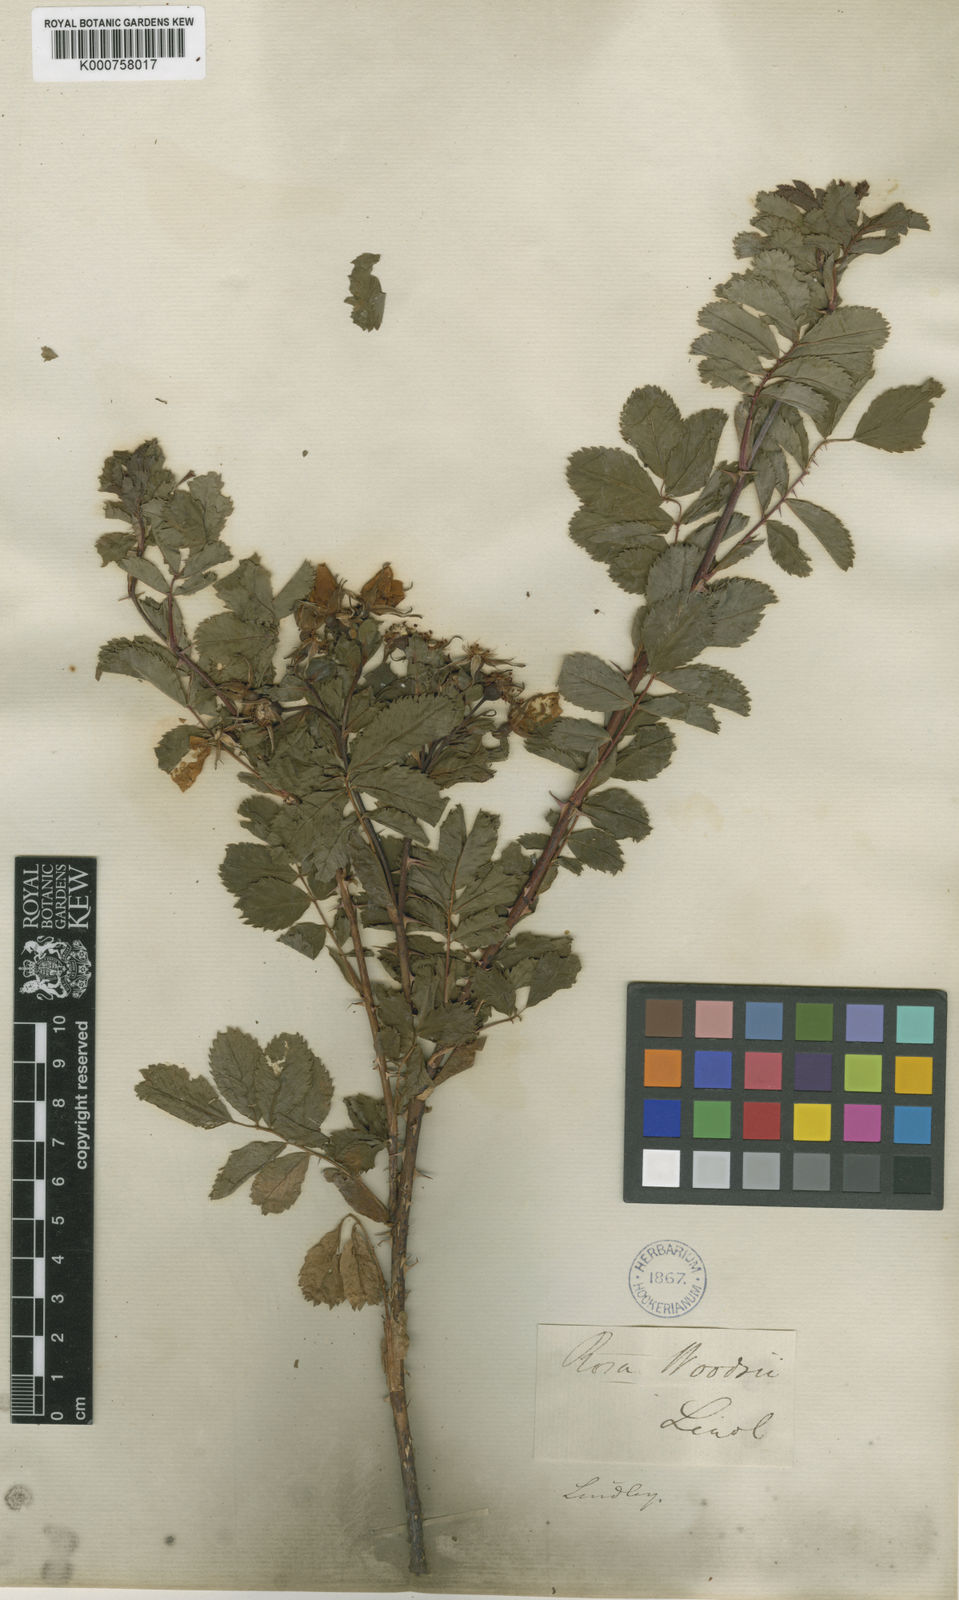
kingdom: Plantae
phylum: Tracheophyta
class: Magnoliopsida
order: Rosales
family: Rosaceae
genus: Rosa
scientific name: Rosa woodsii
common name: Woods's rose
